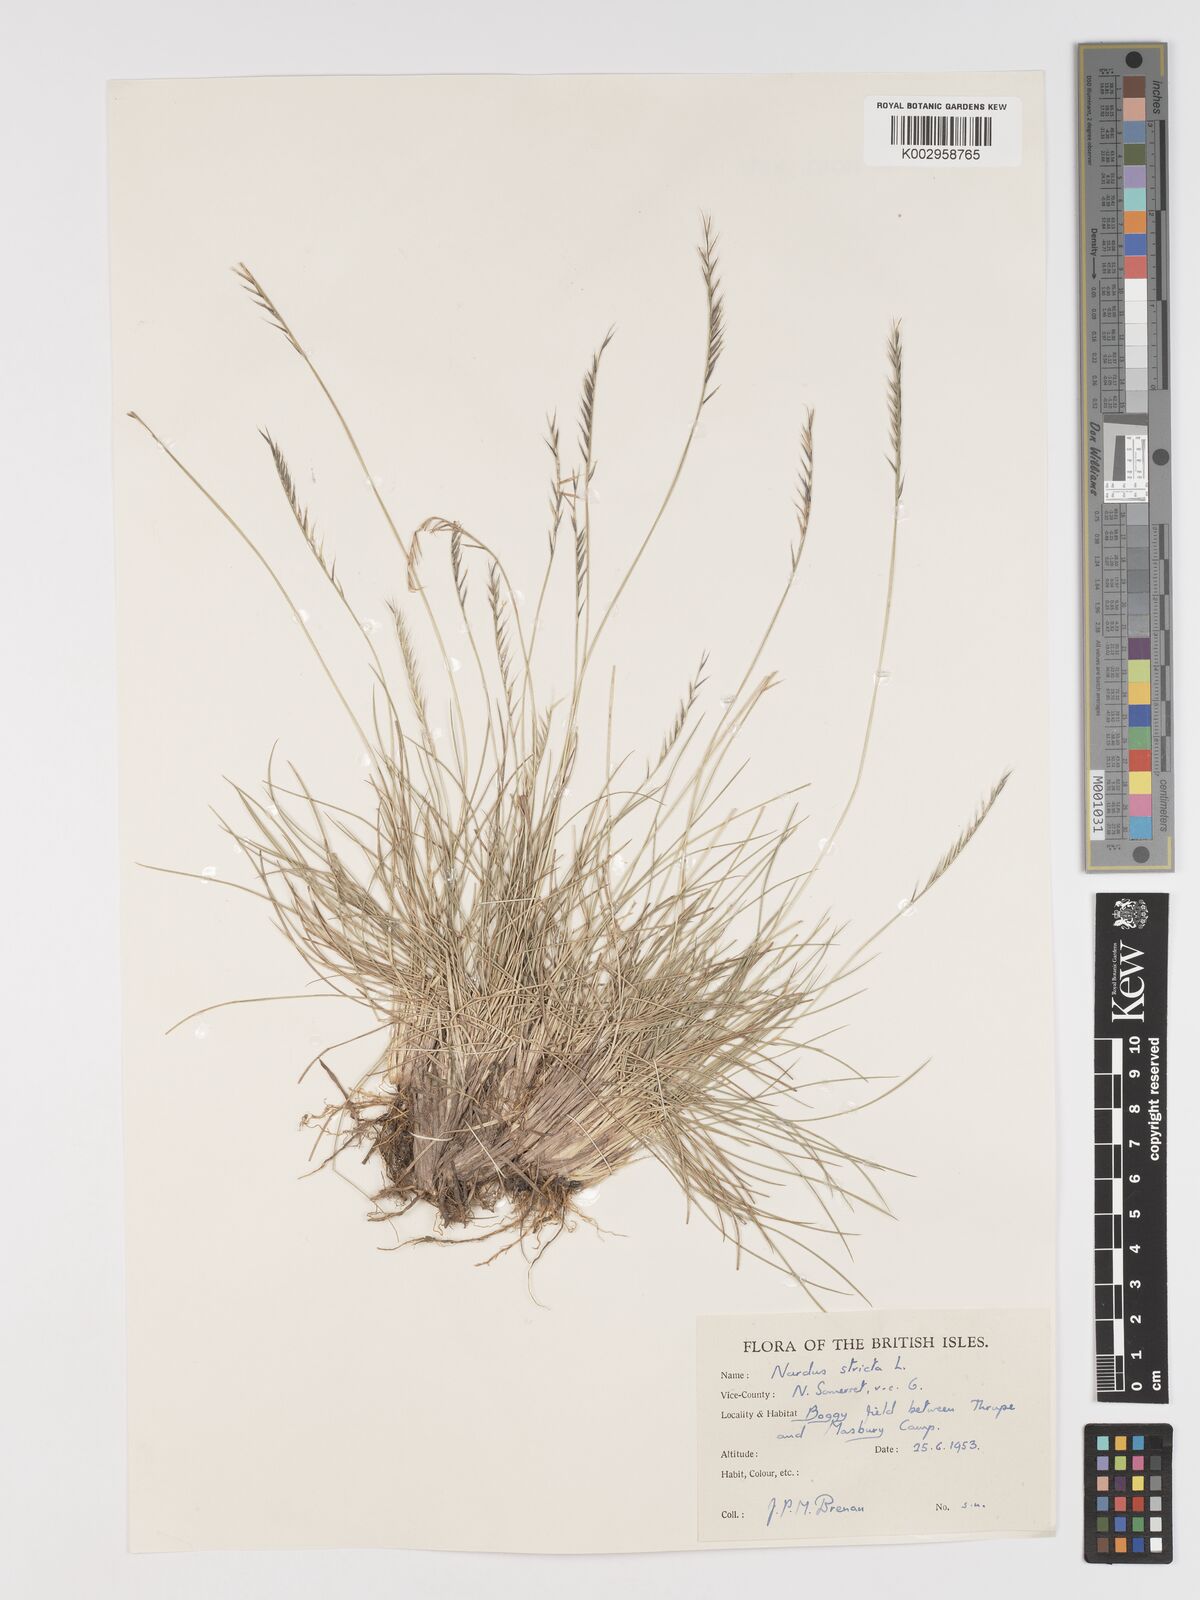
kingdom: Plantae
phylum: Tracheophyta
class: Liliopsida
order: Poales
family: Poaceae
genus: Nardus
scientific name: Nardus stricta
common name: Mat-grass
